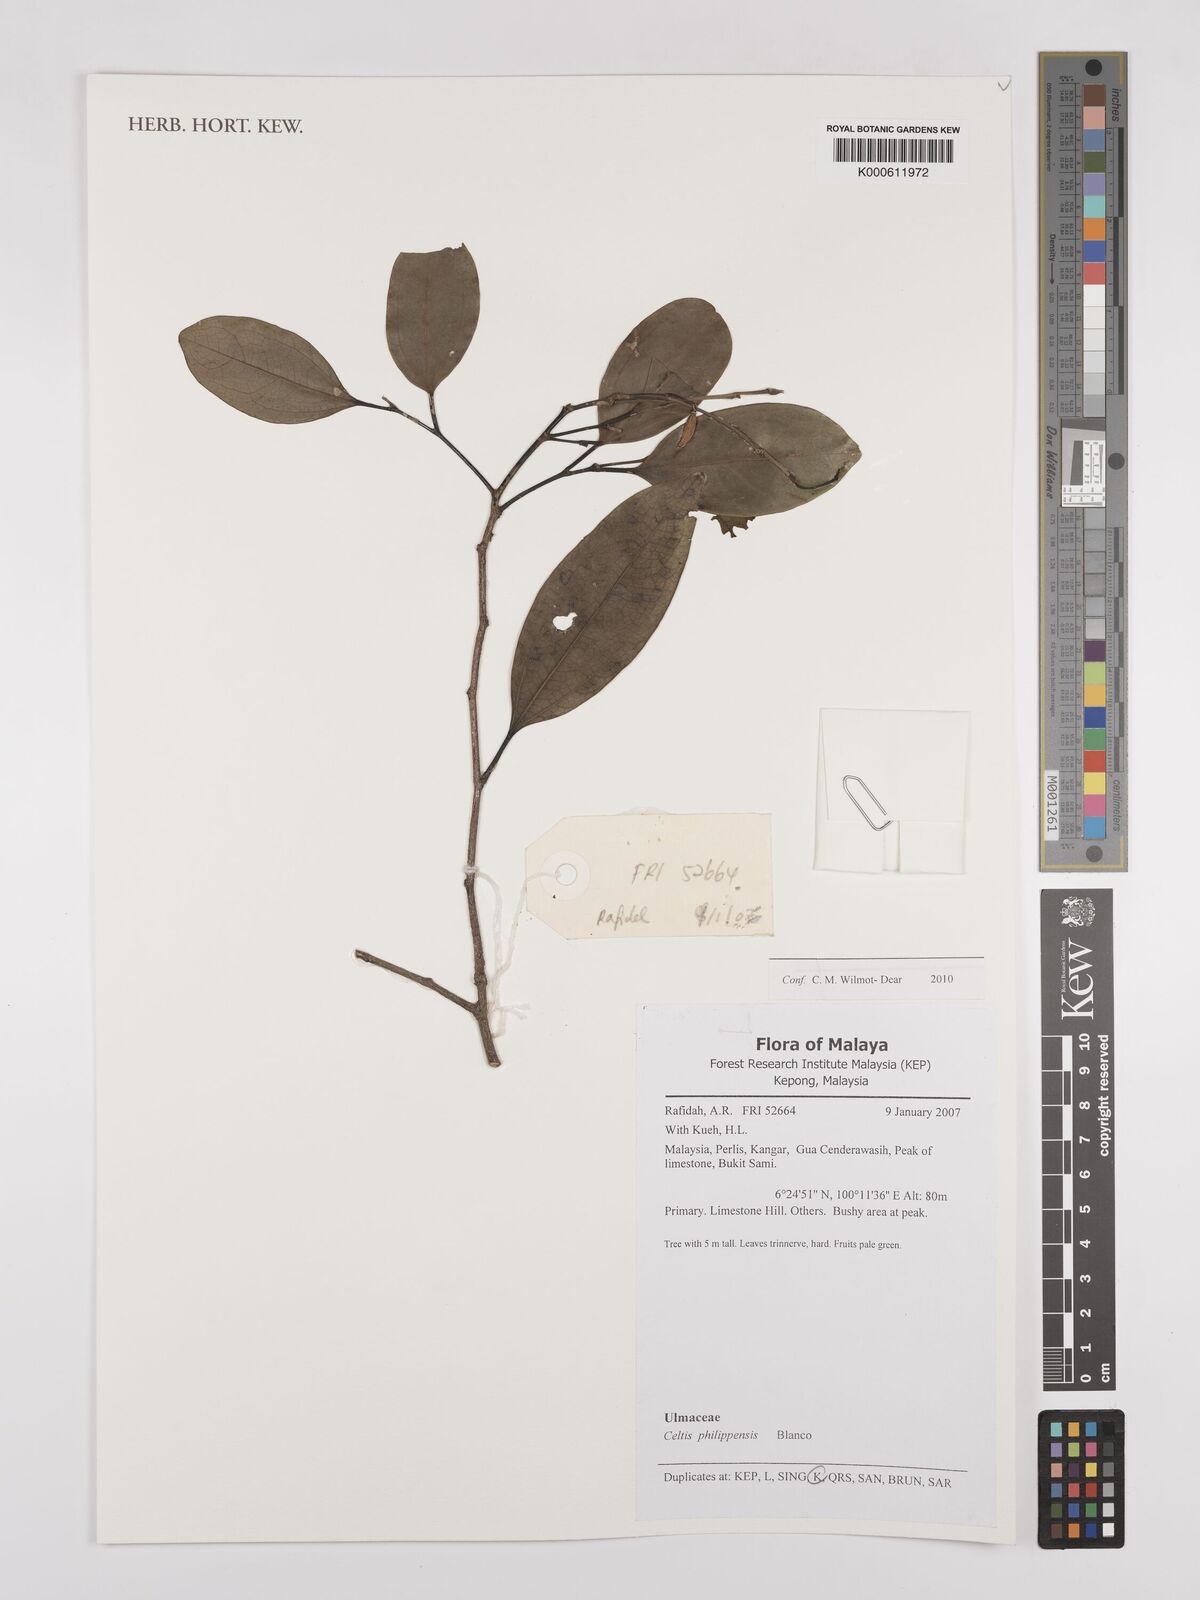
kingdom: Plantae
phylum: Tracheophyta
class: Magnoliopsida
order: Rosales
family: Cannabaceae
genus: Celtis
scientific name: Celtis philippensis
